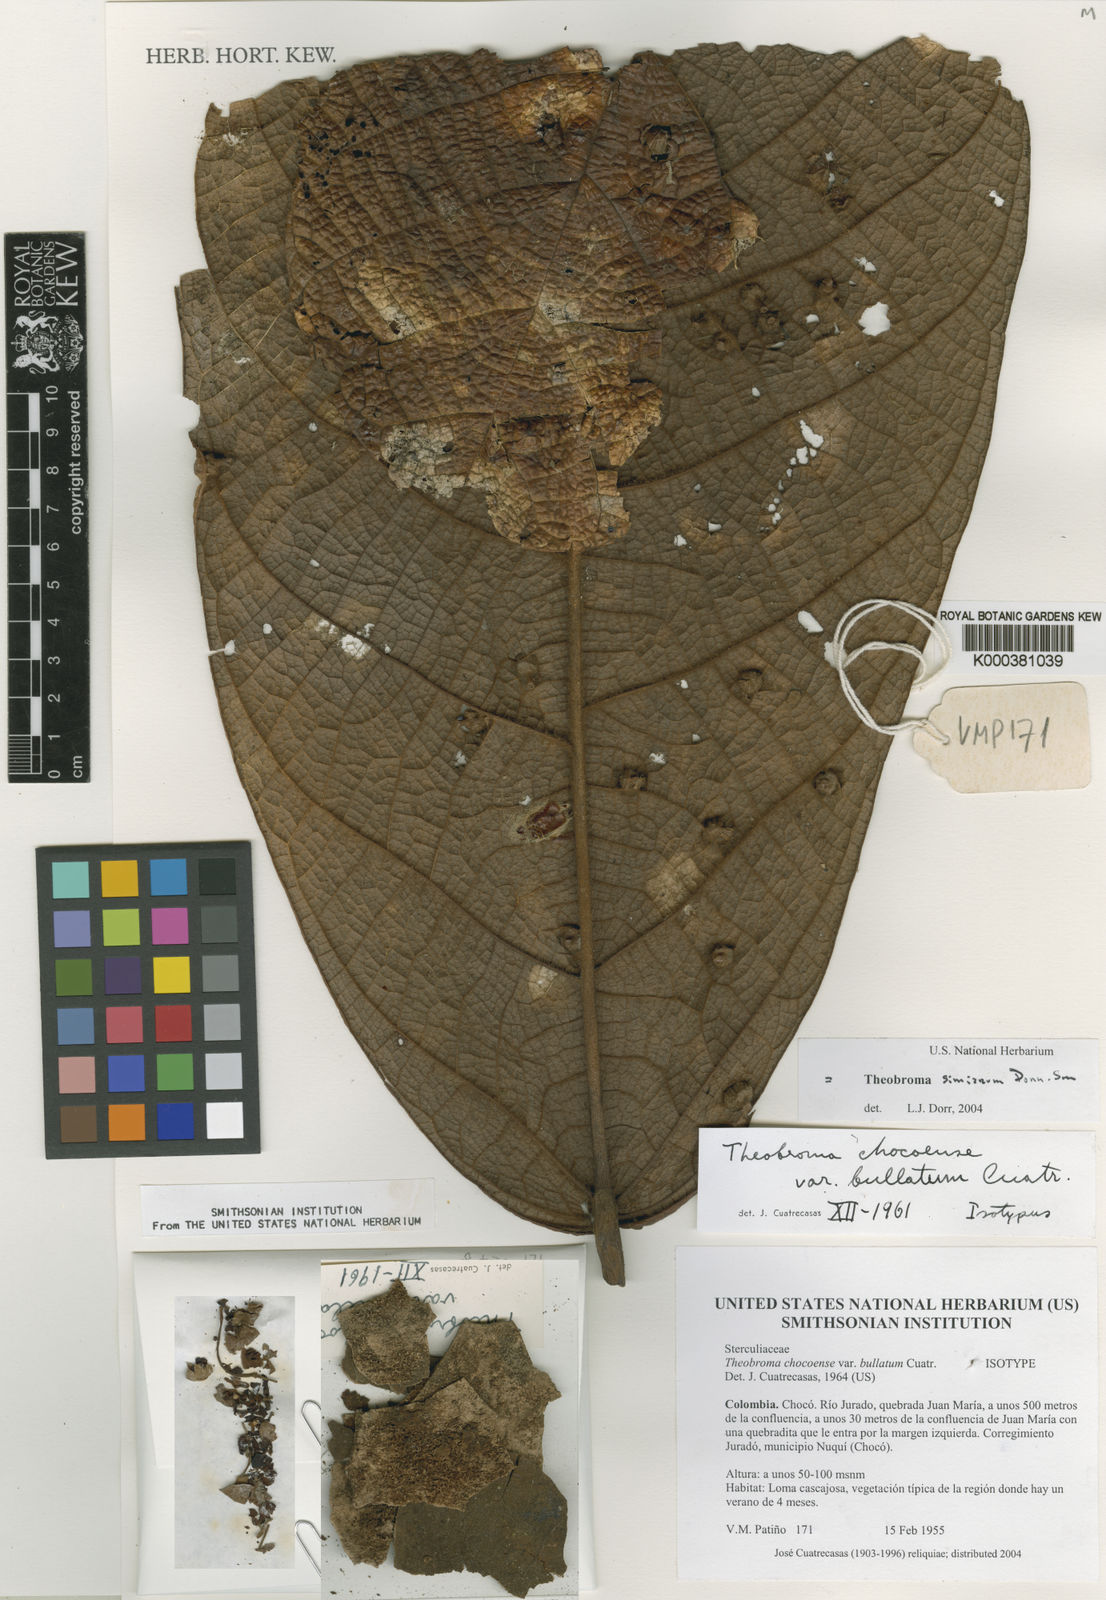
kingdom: Plantae
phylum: Tracheophyta
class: Magnoliopsida
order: Malvales
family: Malvaceae
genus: Theobroma
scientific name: Theobroma simiarum
